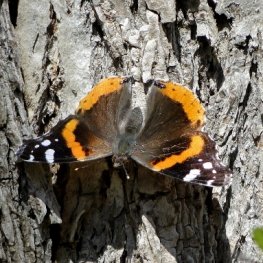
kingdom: Animalia
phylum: Arthropoda
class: Insecta
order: Lepidoptera
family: Nymphalidae
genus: Vanessa
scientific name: Vanessa atalanta
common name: Red Admiral
